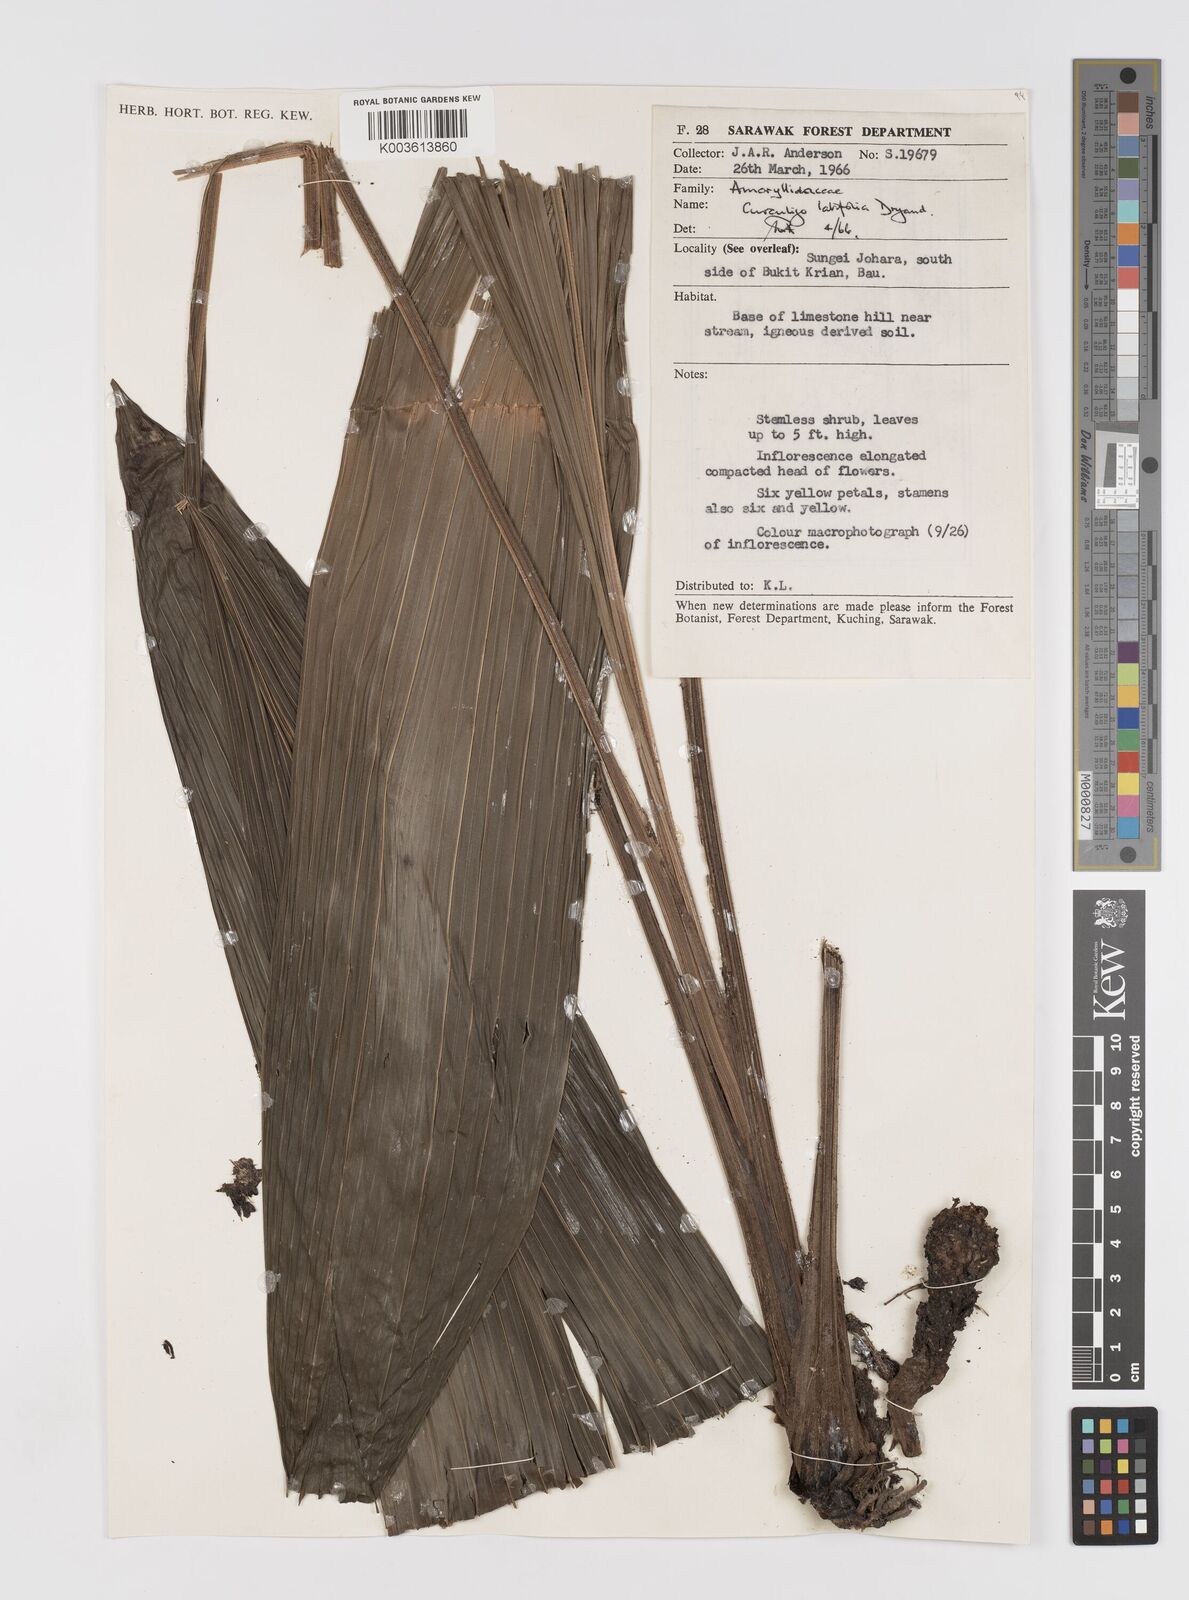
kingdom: Plantae
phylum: Tracheophyta
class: Liliopsida
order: Asparagales
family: Hypoxidaceae
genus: Curculigo
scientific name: Curculigo latifolia
